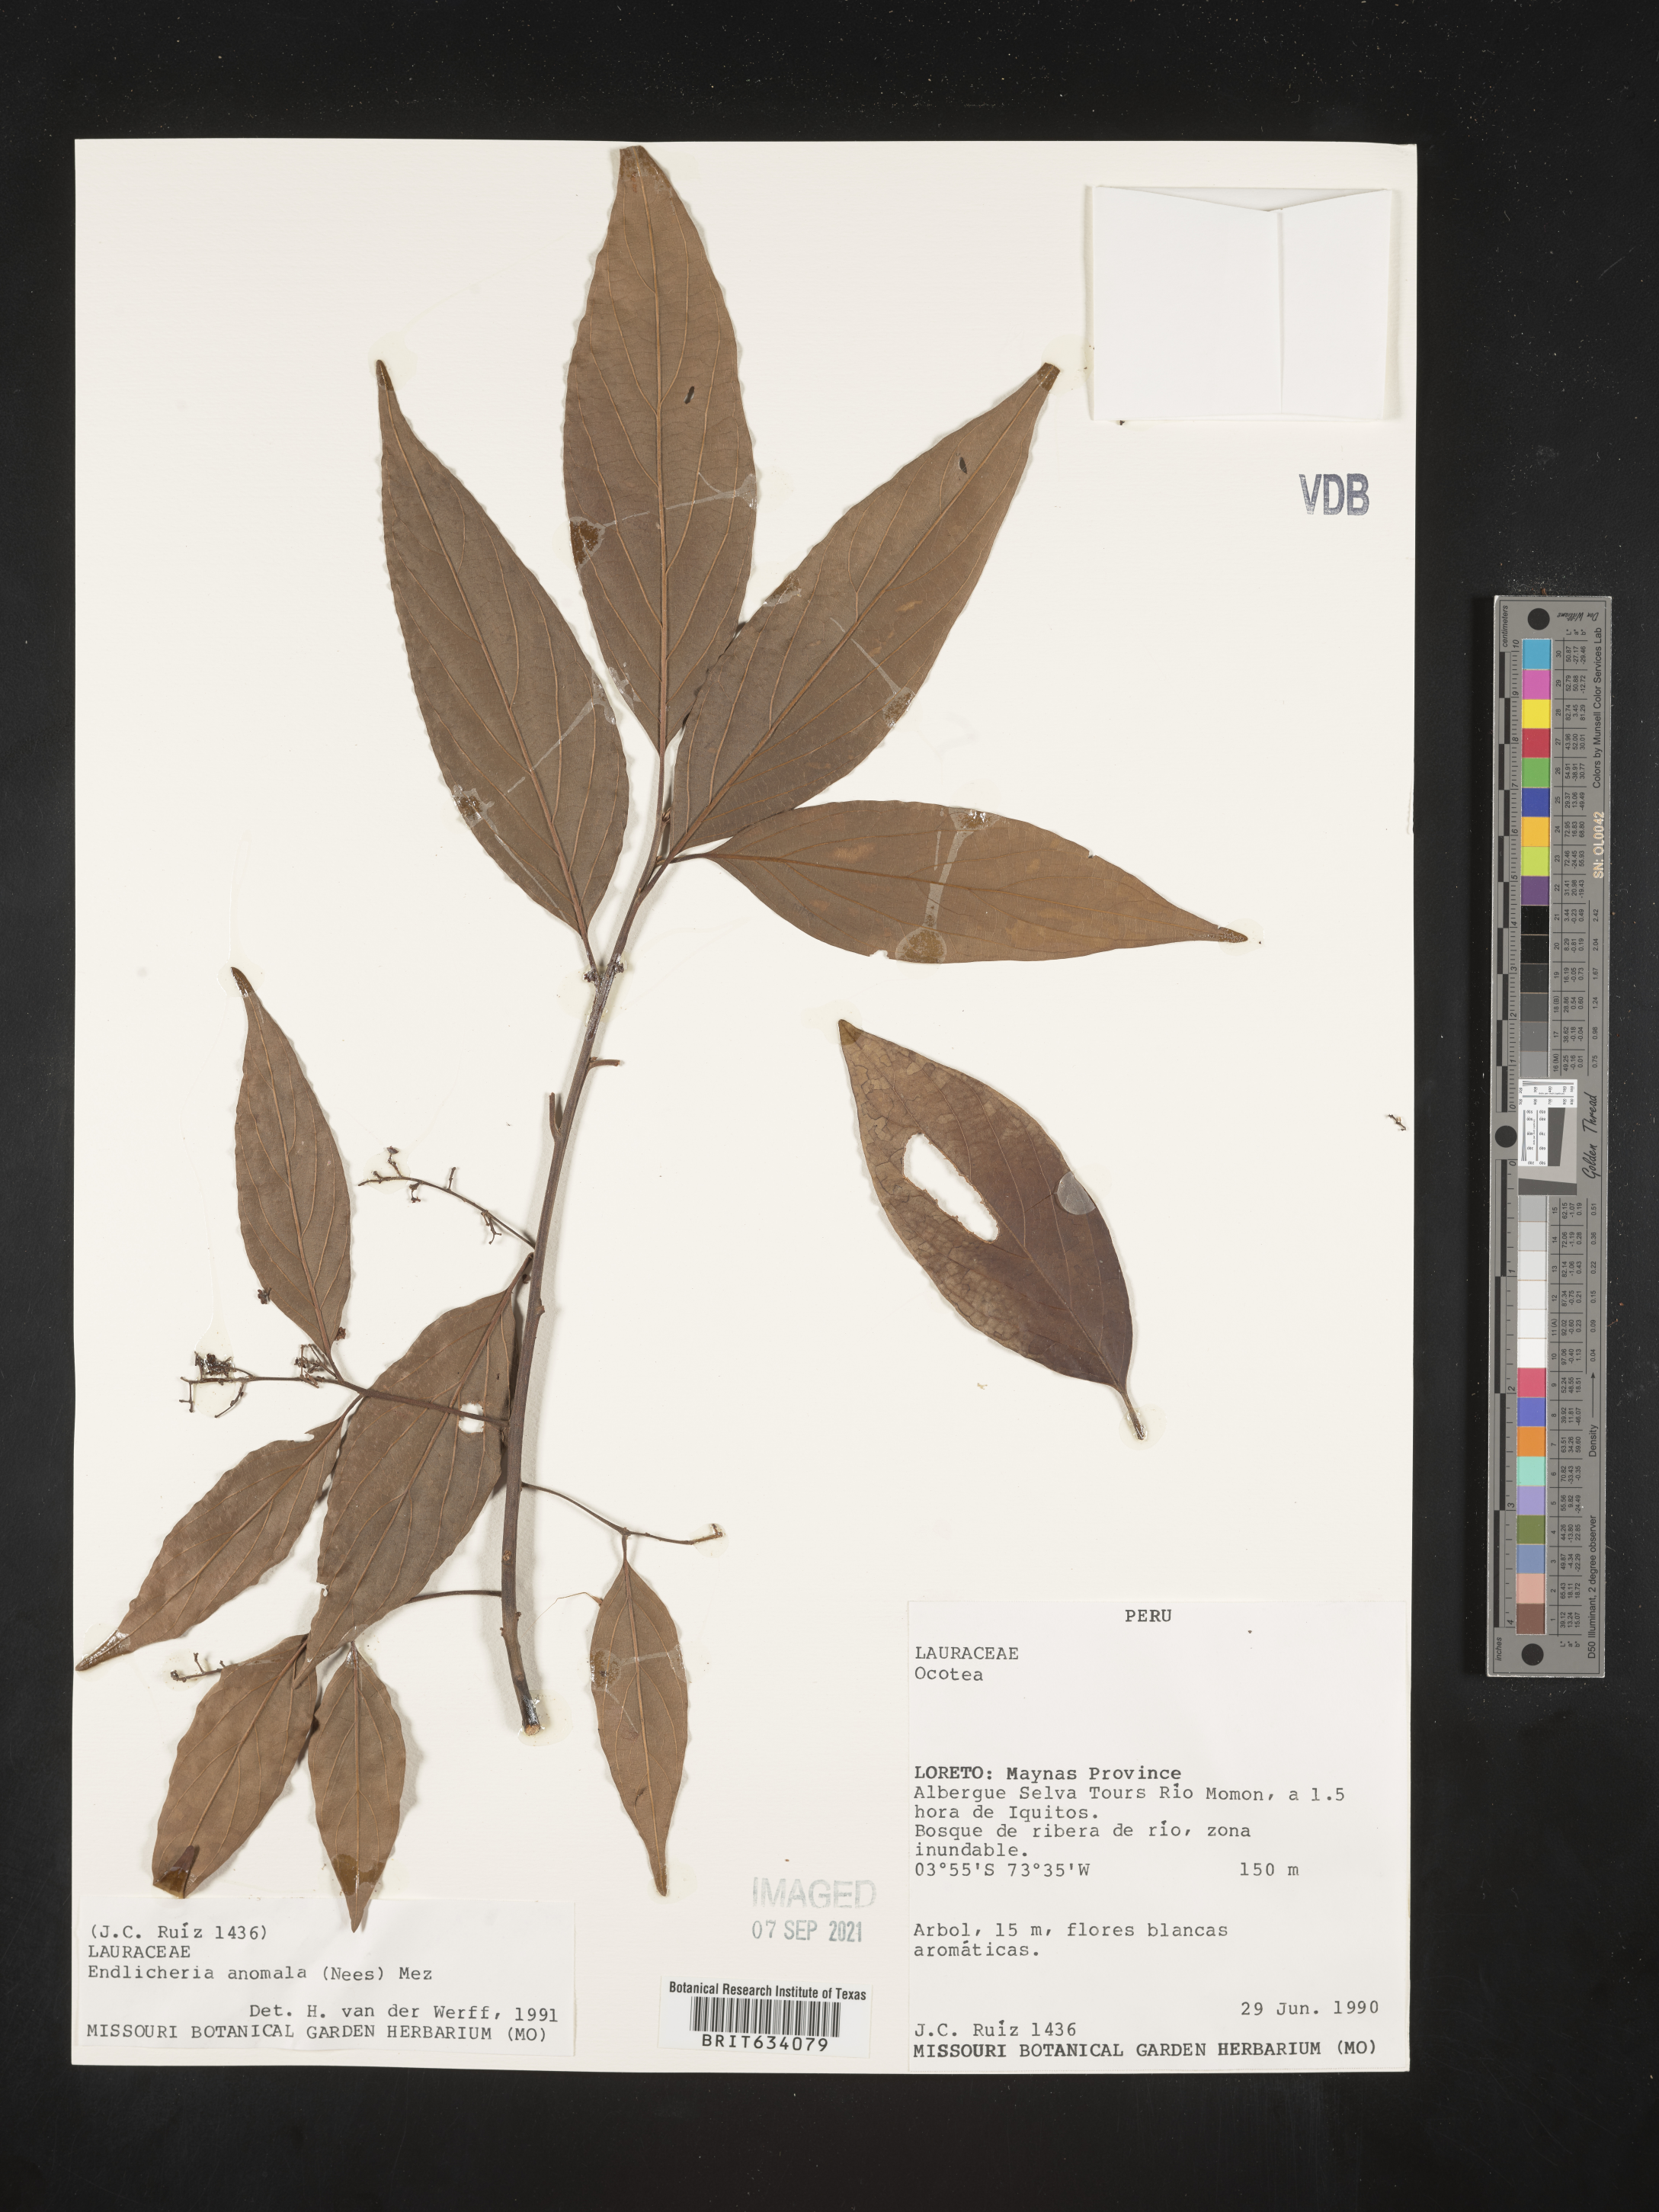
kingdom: Plantae
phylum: Tracheophyta
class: Magnoliopsida
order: Laurales
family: Lauraceae
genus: Endlicheria
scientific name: Endlicheria
